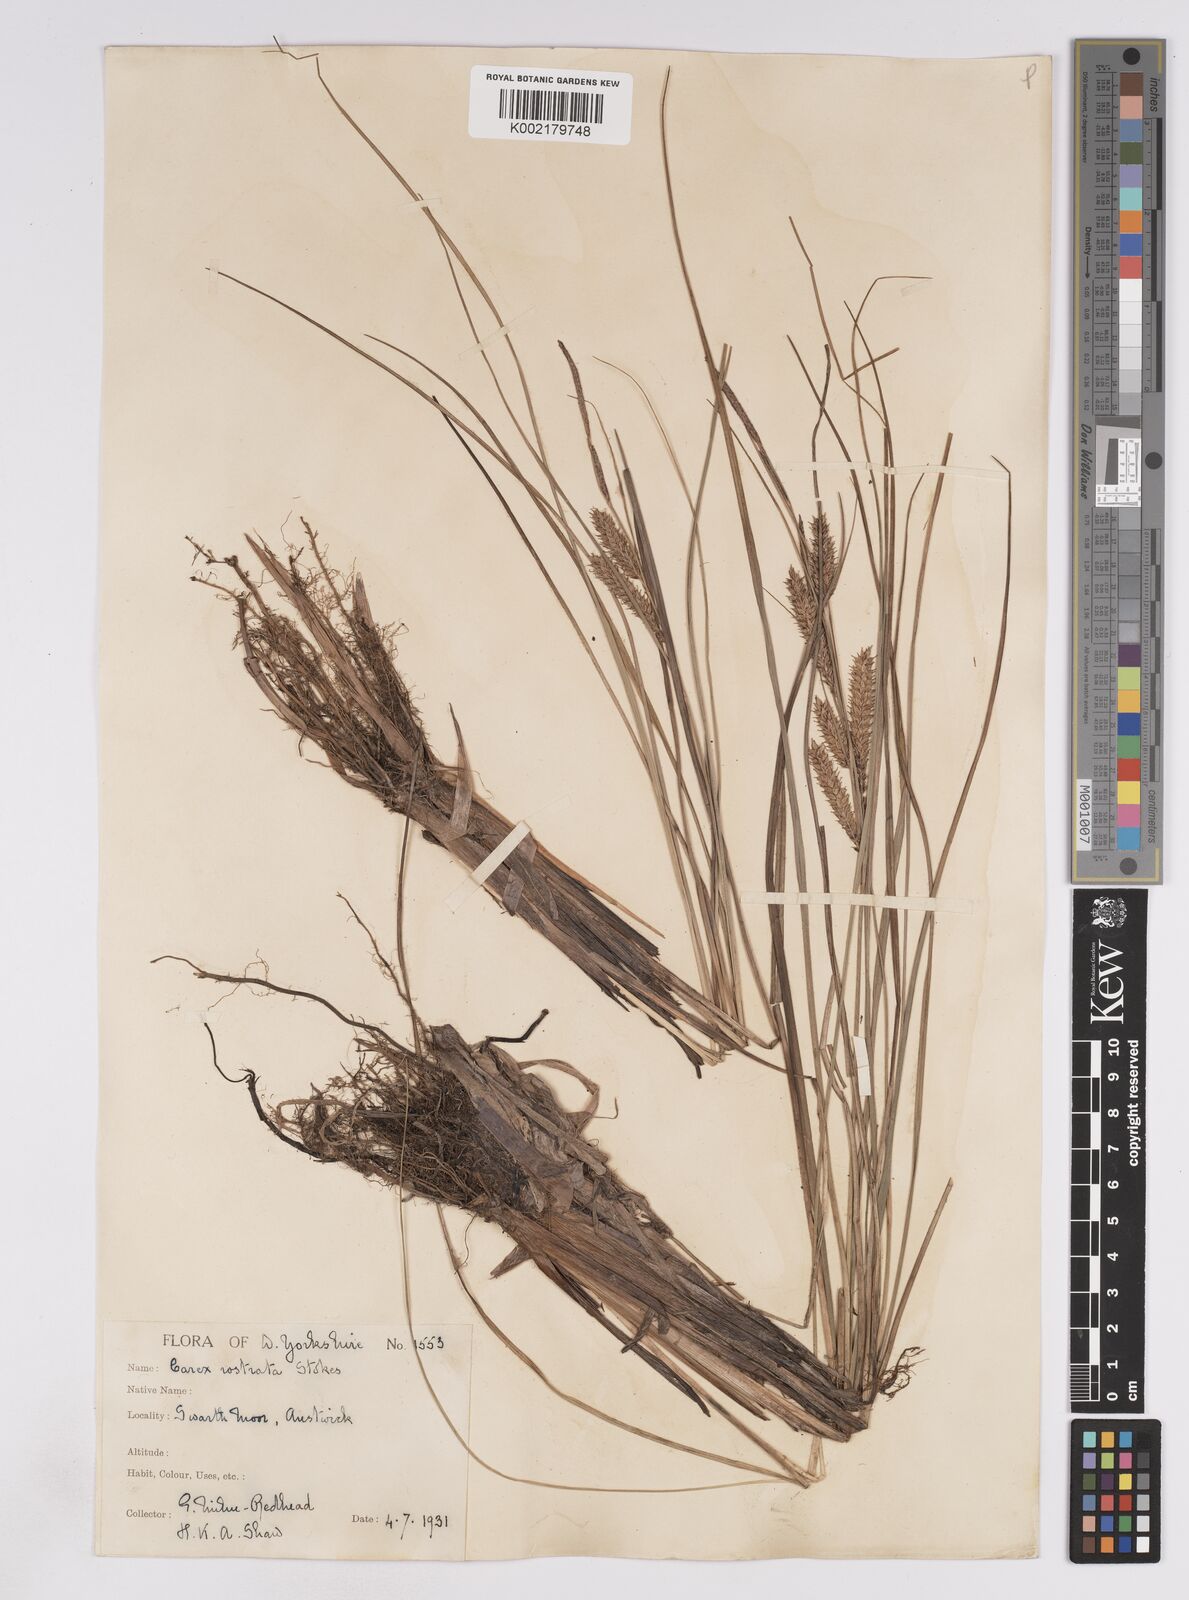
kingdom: Plantae
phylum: Tracheophyta
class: Liliopsida
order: Poales
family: Cyperaceae
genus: Carex
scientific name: Carex rostrata
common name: Bottle sedge
